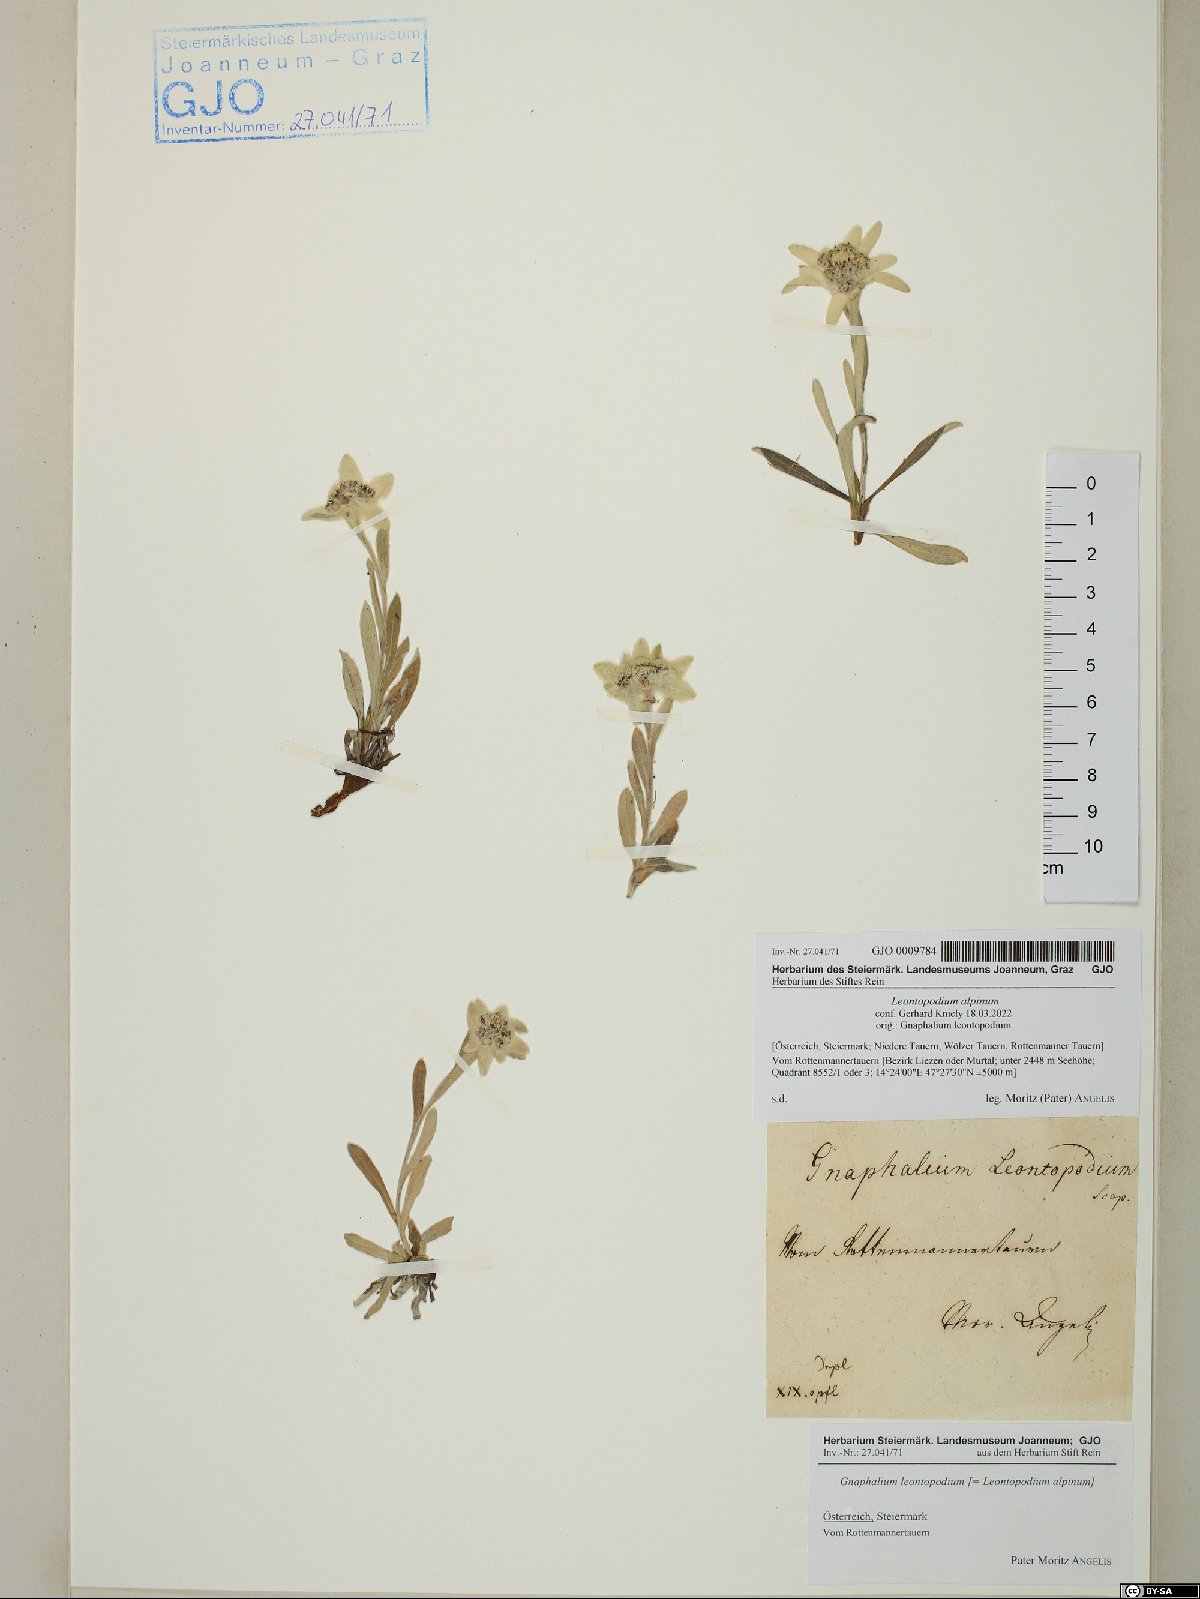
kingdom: Plantae
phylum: Tracheophyta
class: Magnoliopsida
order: Asterales
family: Asteraceae
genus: Leontopodium
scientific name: Leontopodium nivale
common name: Edelweiss
